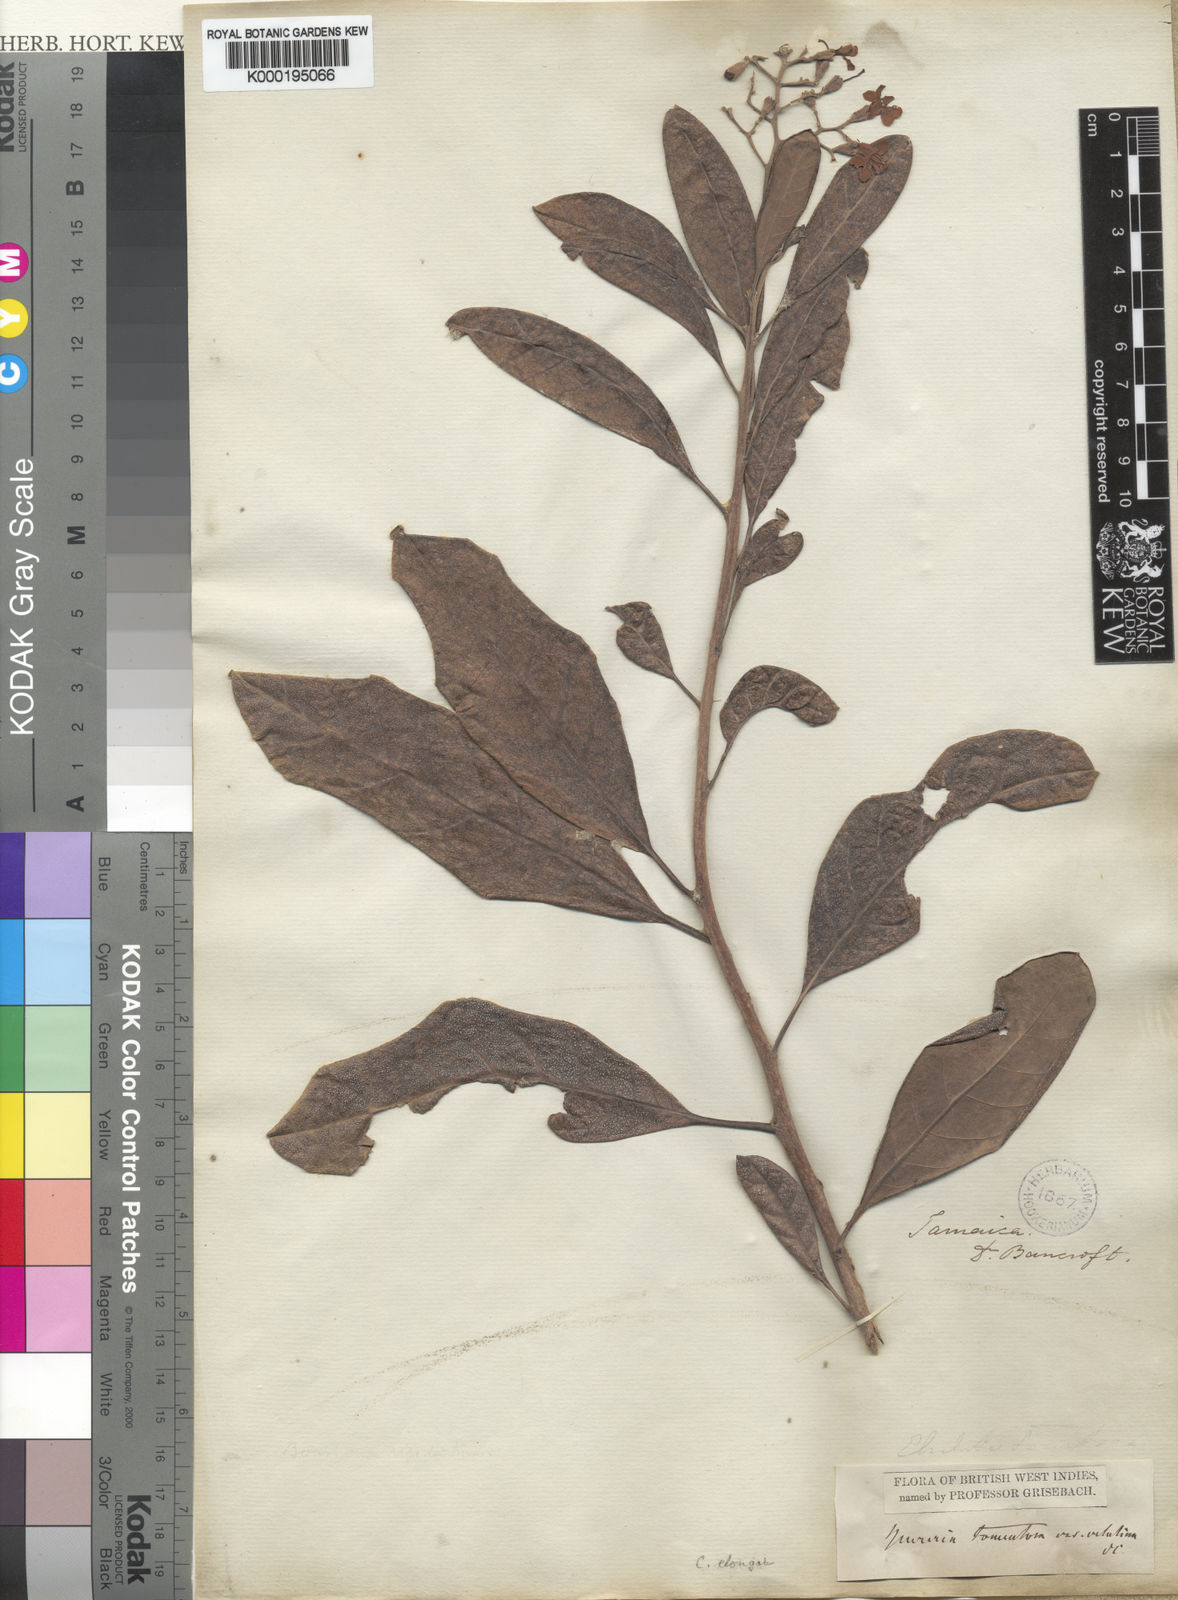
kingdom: Plantae
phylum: Tracheophyta
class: Magnoliopsida
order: Boraginales
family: Ehretiaceae
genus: Bourreria
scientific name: Bourreria succulenta
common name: Cherry
